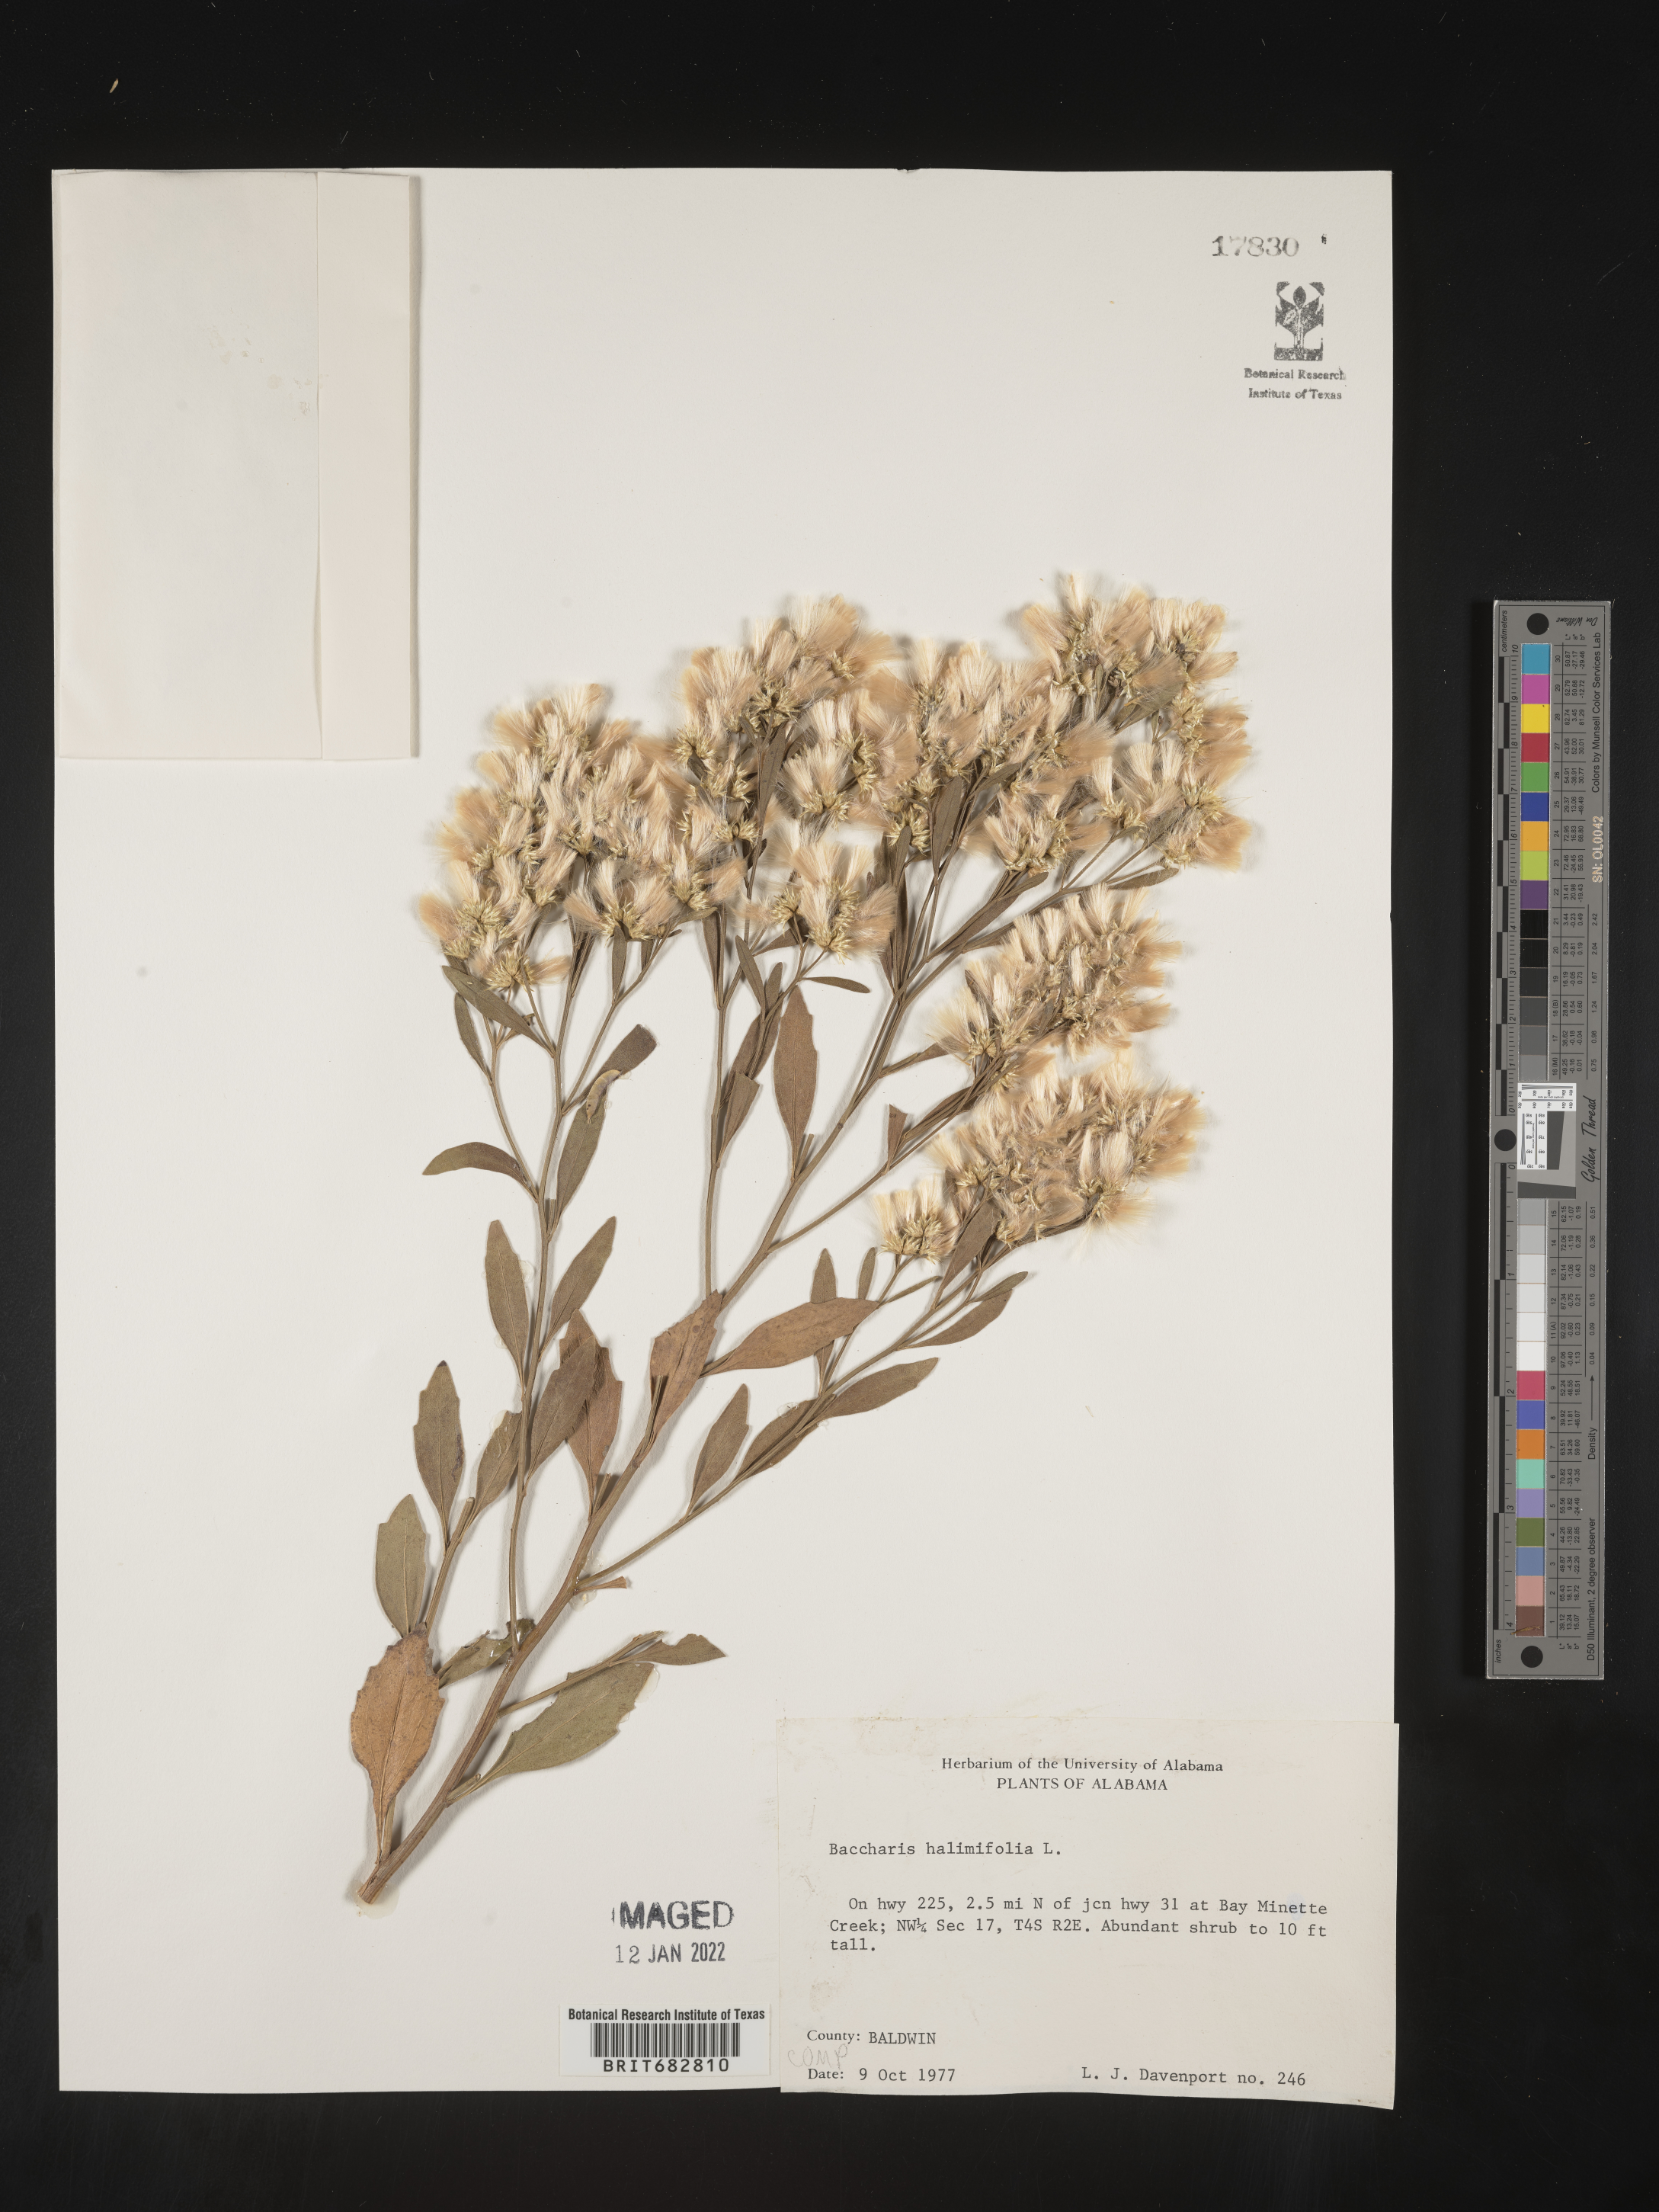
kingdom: Plantae
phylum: Tracheophyta
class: Magnoliopsida
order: Asterales
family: Asteraceae
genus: Nidorella
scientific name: Nidorella ivifolia
